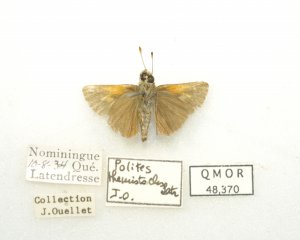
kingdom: Animalia
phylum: Arthropoda
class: Insecta
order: Lepidoptera
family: Hesperiidae
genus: Polites
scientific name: Polites themistocles
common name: Tawny-edged Skipper
